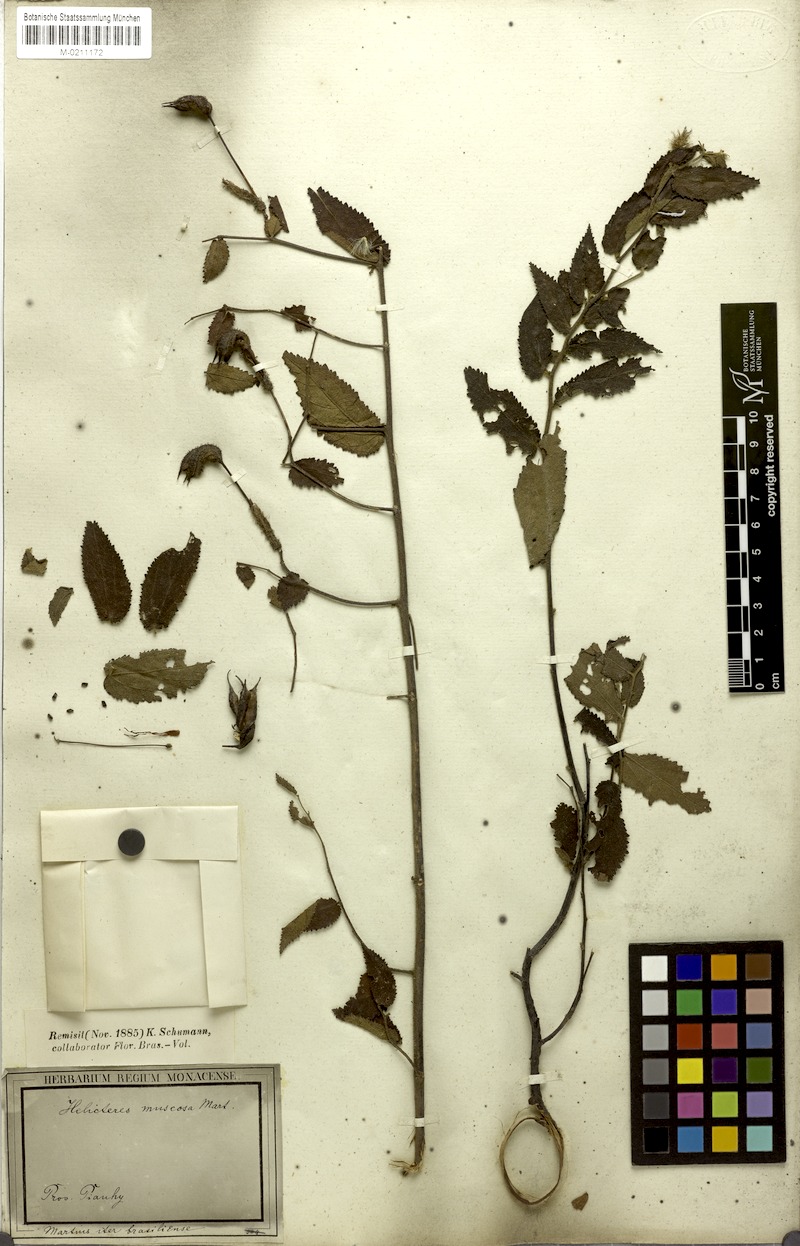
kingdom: Plantae
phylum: Tracheophyta
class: Magnoliopsida
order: Malvales
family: Malvaceae
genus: Helicteres
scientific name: Helicteres muscosa
